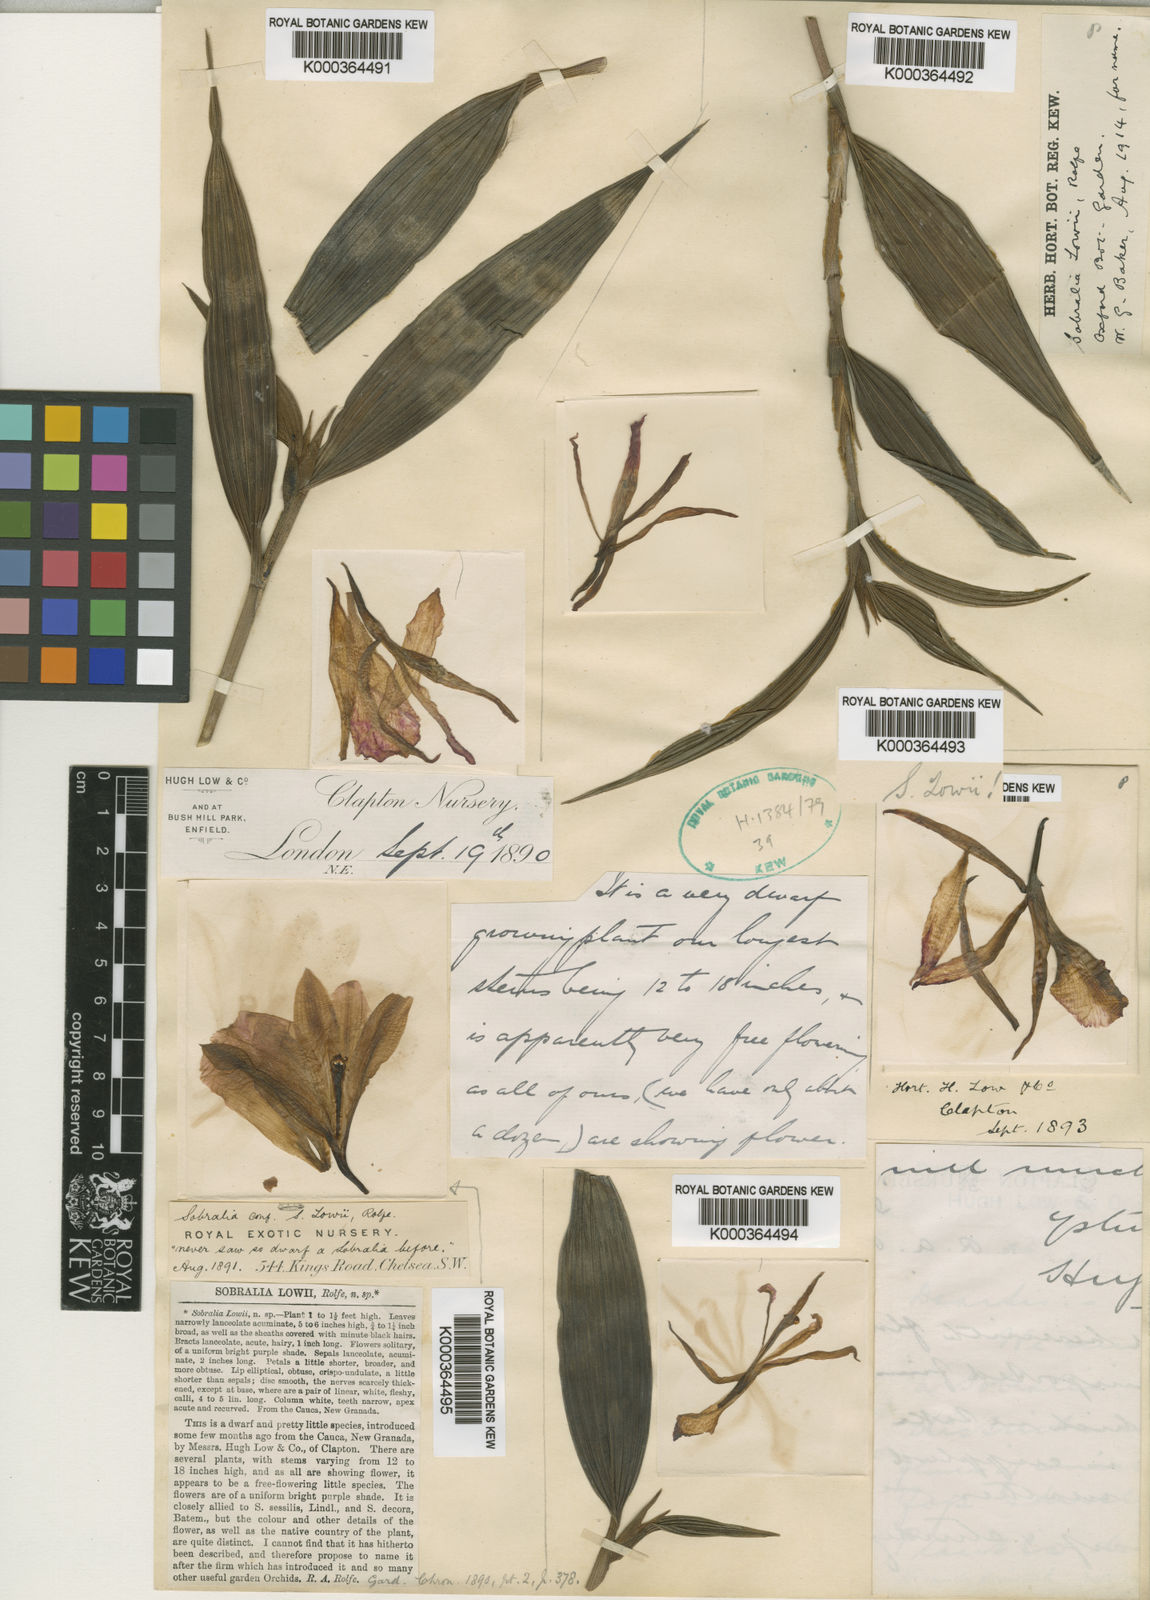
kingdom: Plantae
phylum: Tracheophyta
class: Liliopsida
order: Asparagales
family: Orchidaceae
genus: Sobralia
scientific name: Sobralia lowii
